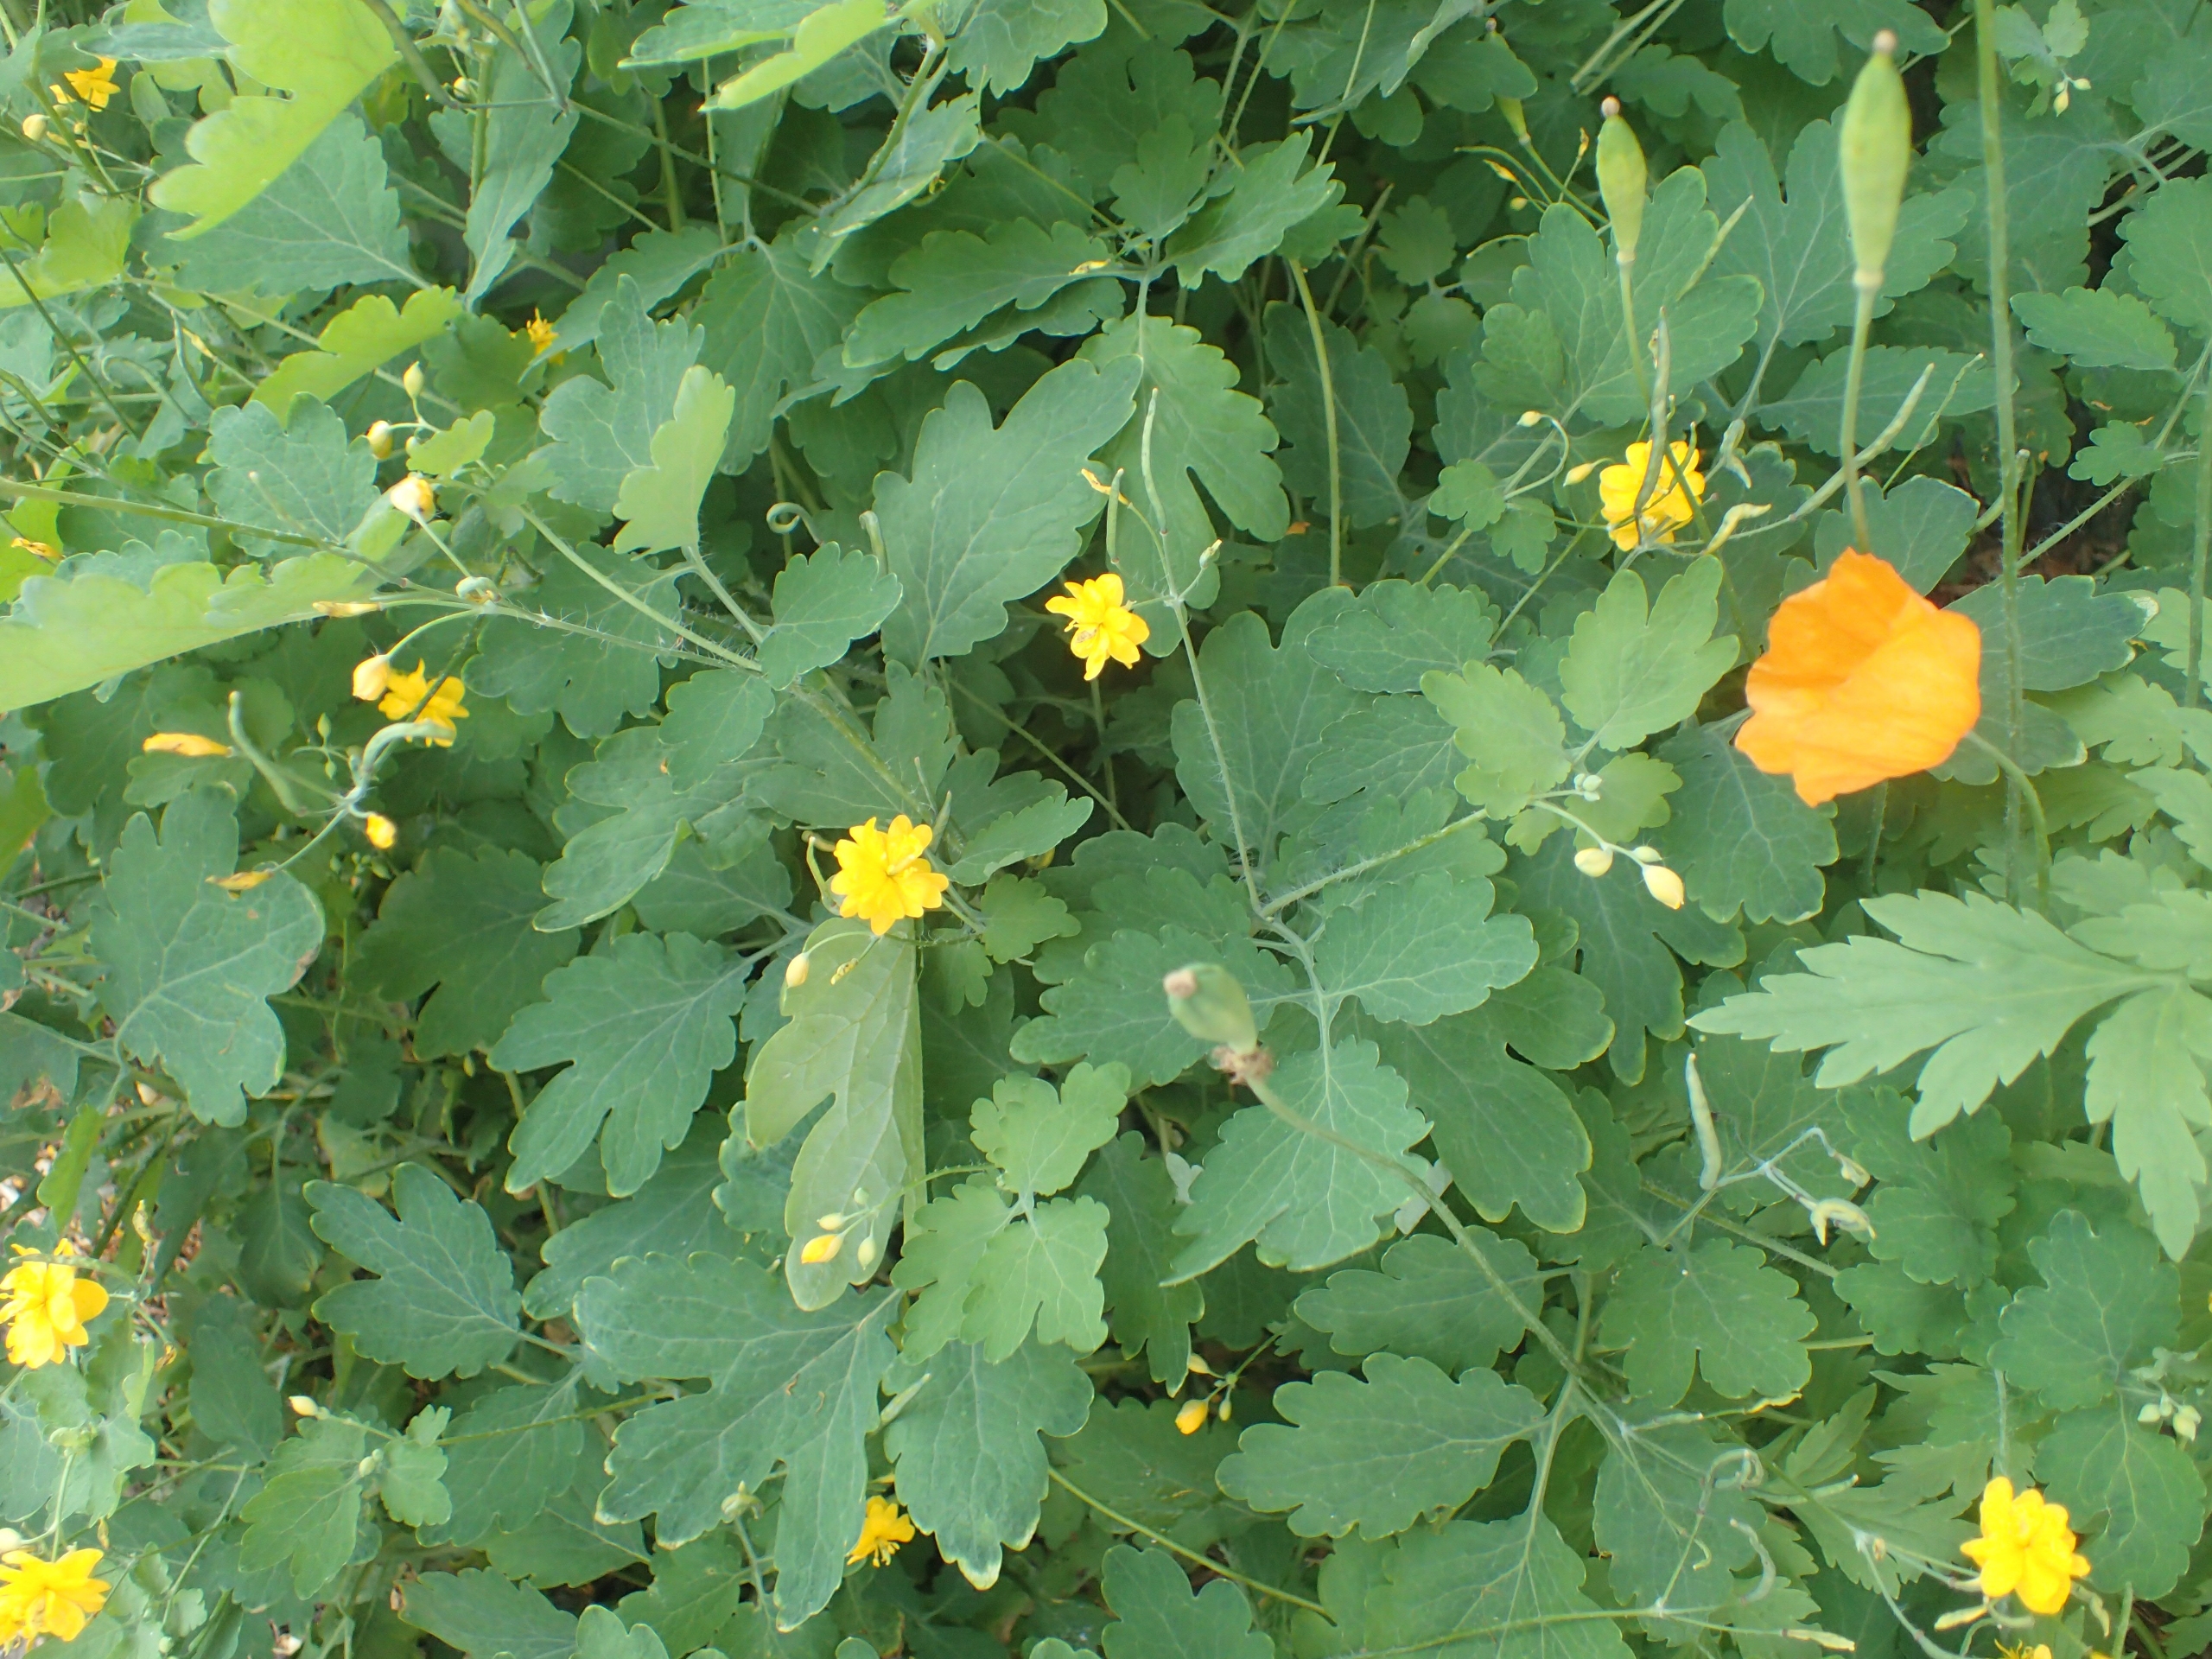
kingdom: Plantae
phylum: Tracheophyta
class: Magnoliopsida
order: Ranunculales
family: Papaveraceae
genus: Chelidonium
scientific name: Chelidonium majus
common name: Svaleurt
